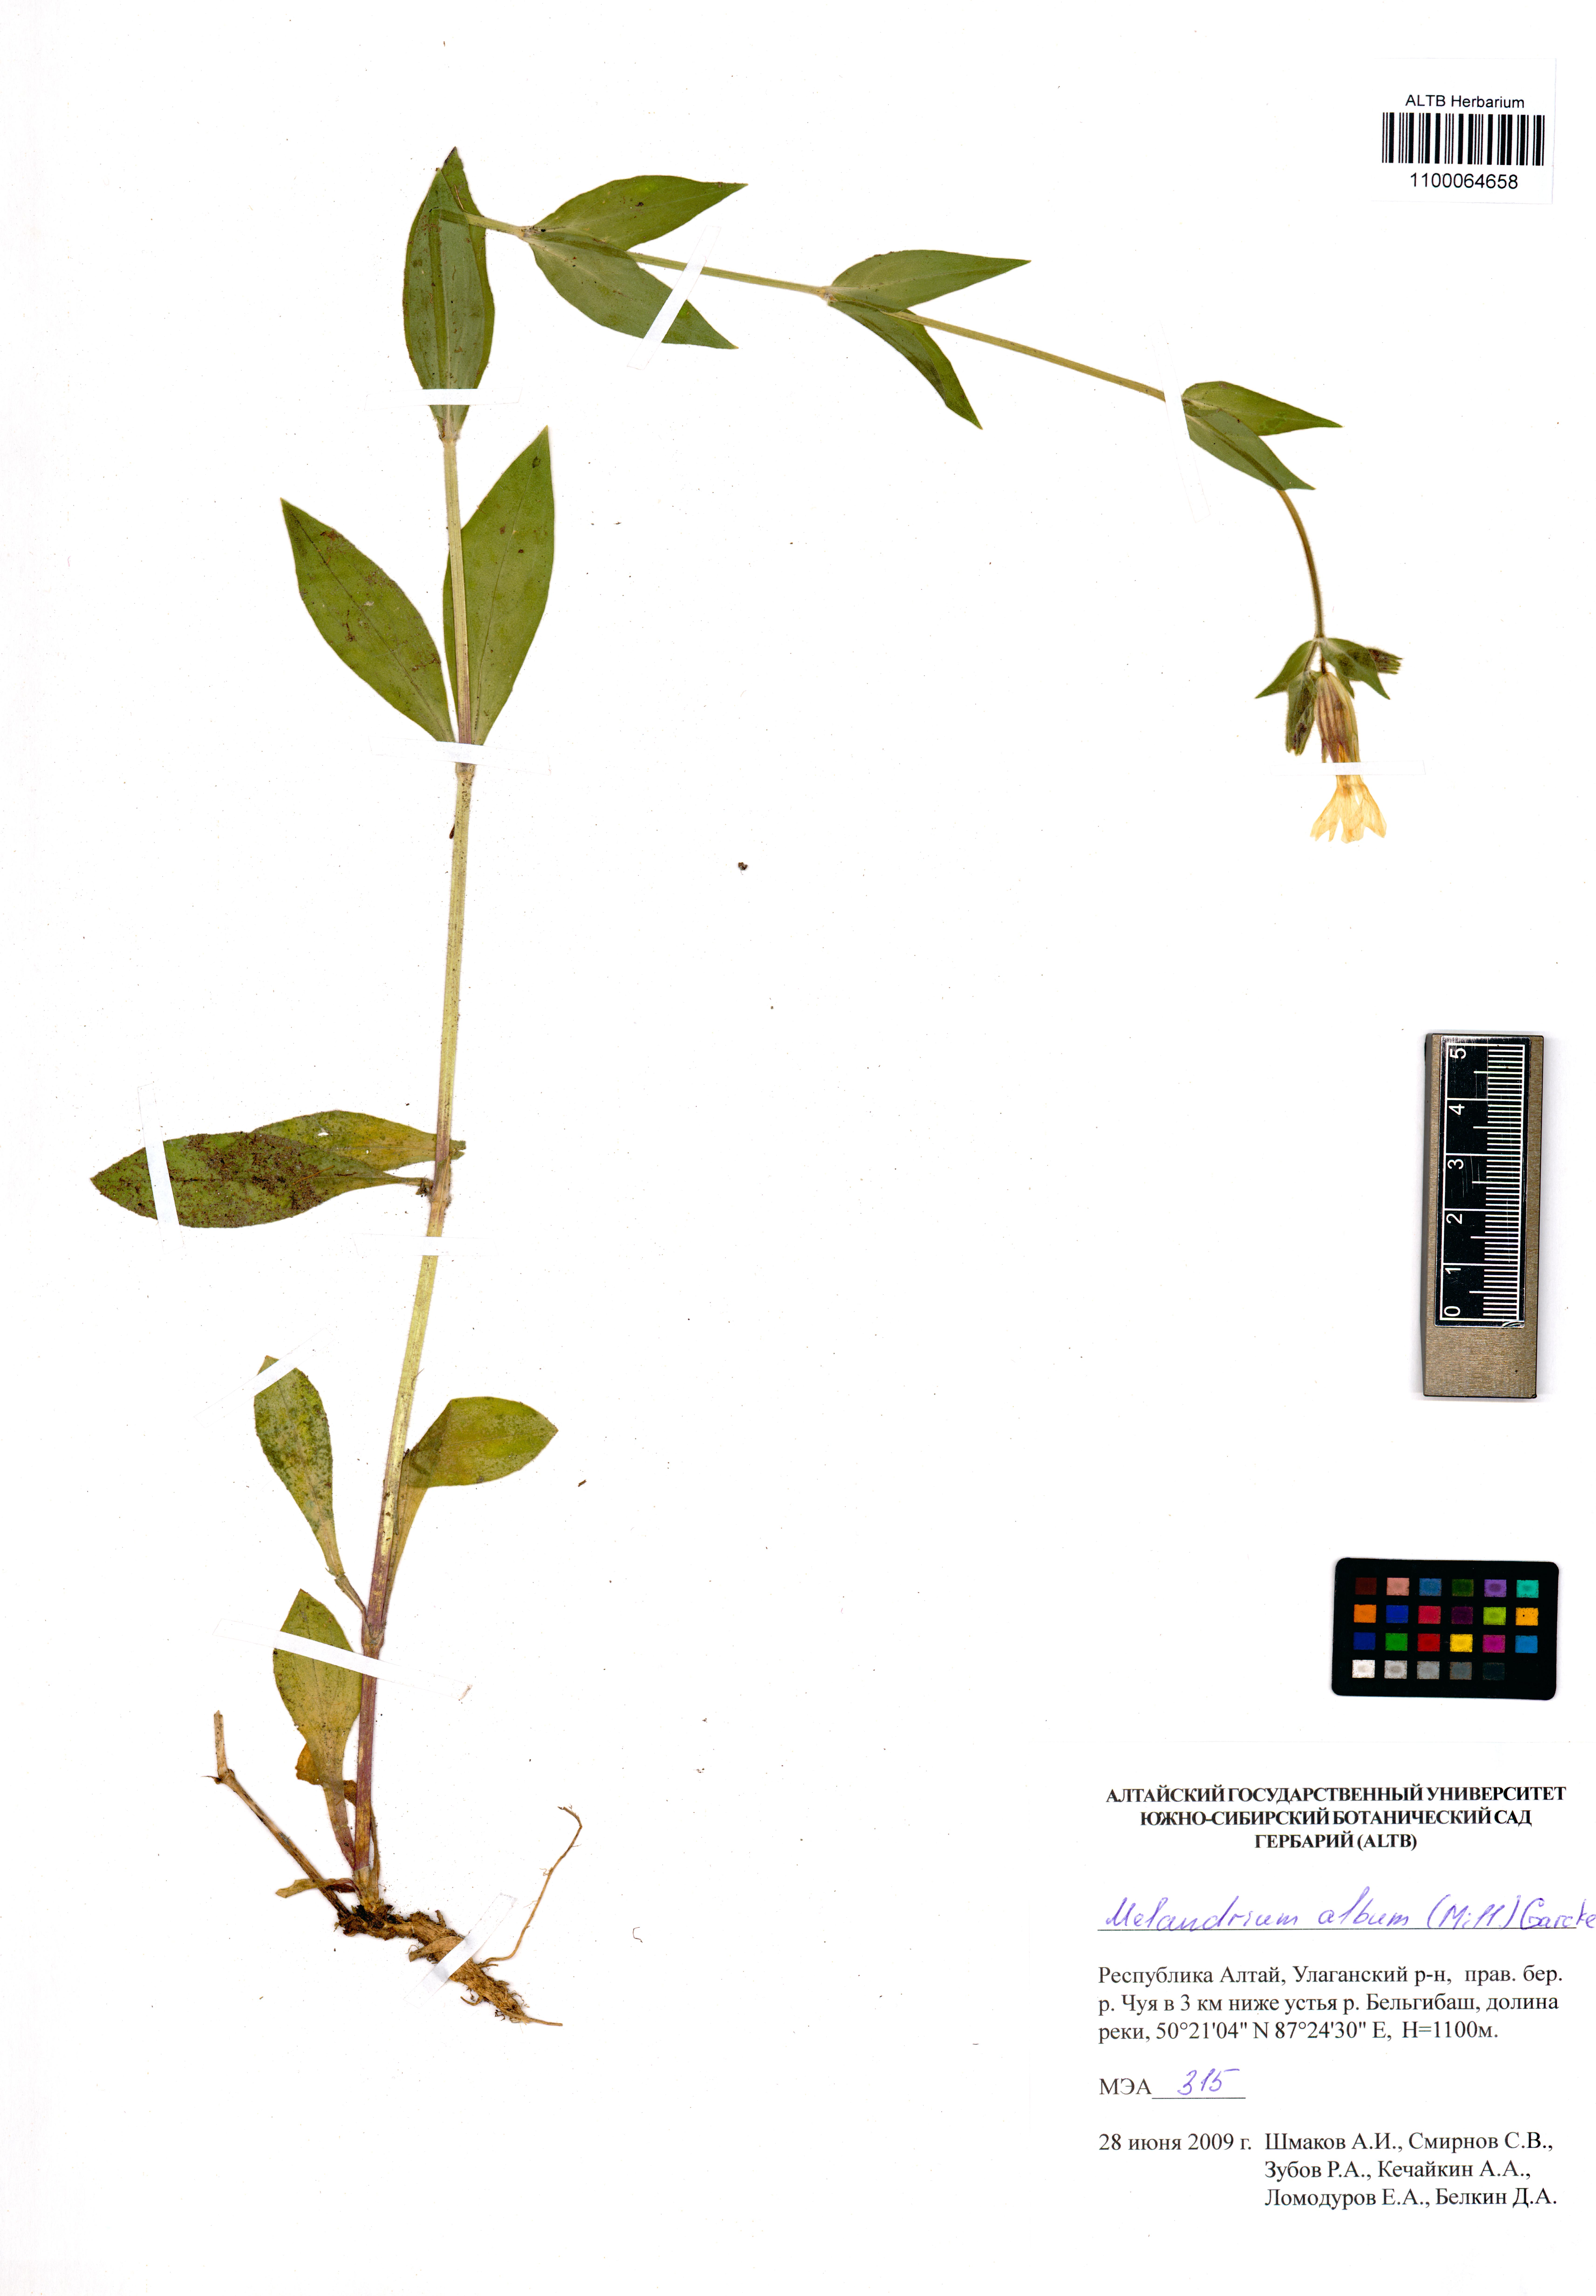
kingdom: Plantae
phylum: Tracheophyta
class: Magnoliopsida
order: Caryophyllales
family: Caryophyllaceae
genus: Silene
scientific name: Silene latifolia
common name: White campion
